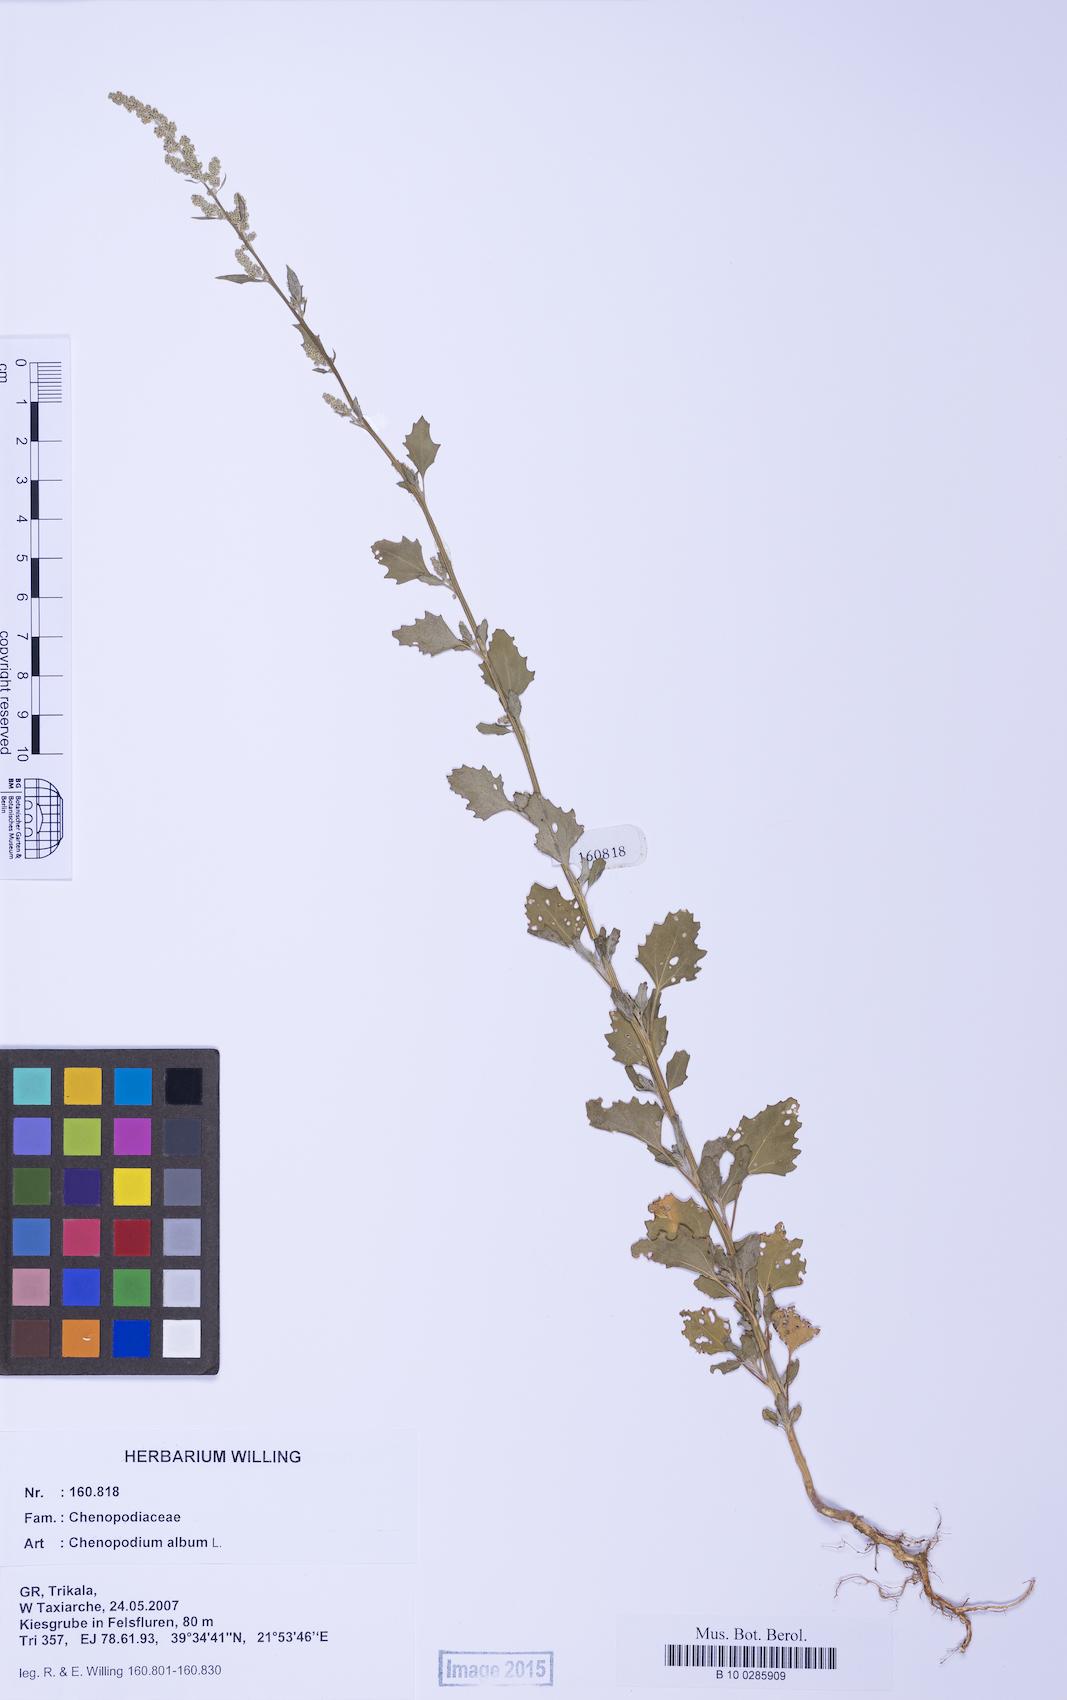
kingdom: Plantae
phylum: Tracheophyta
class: Magnoliopsida
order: Caryophyllales
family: Amaranthaceae
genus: Chenopodium
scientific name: Chenopodium album
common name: Fat-hen
